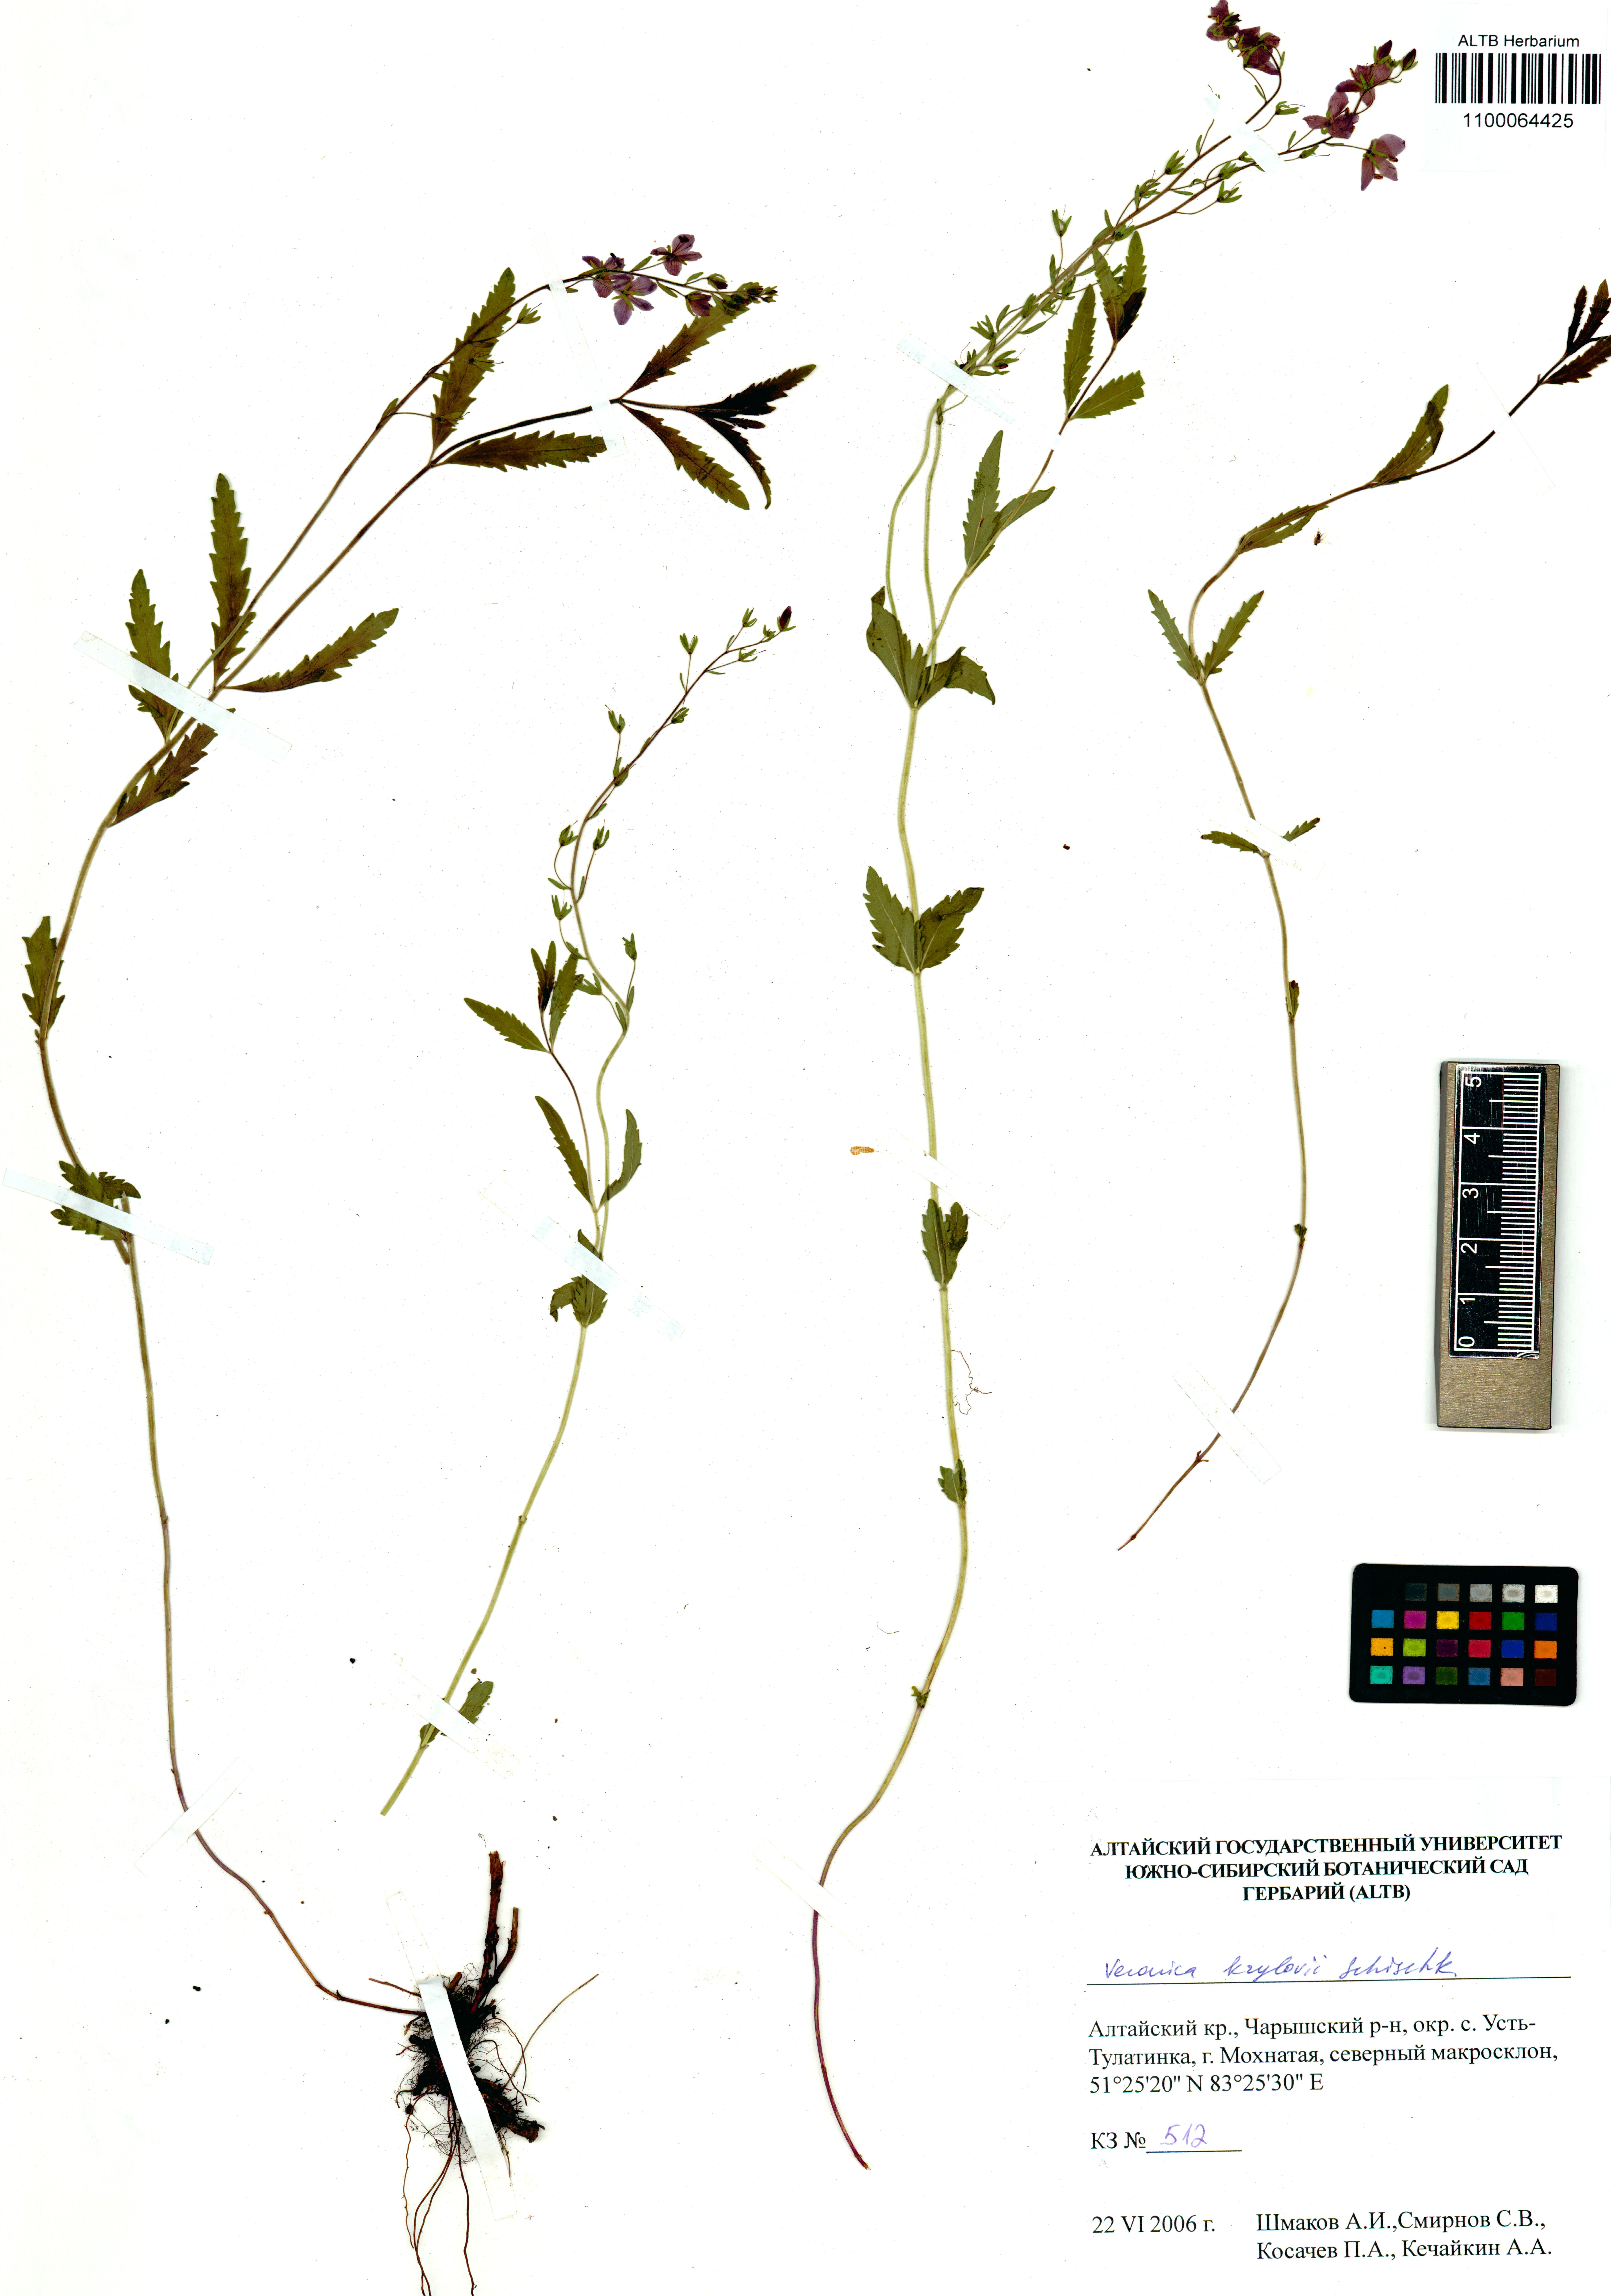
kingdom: Plantae
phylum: Tracheophyta
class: Magnoliopsida
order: Lamiales
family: Plantaginaceae
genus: Veronica
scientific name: Veronica krylovii
